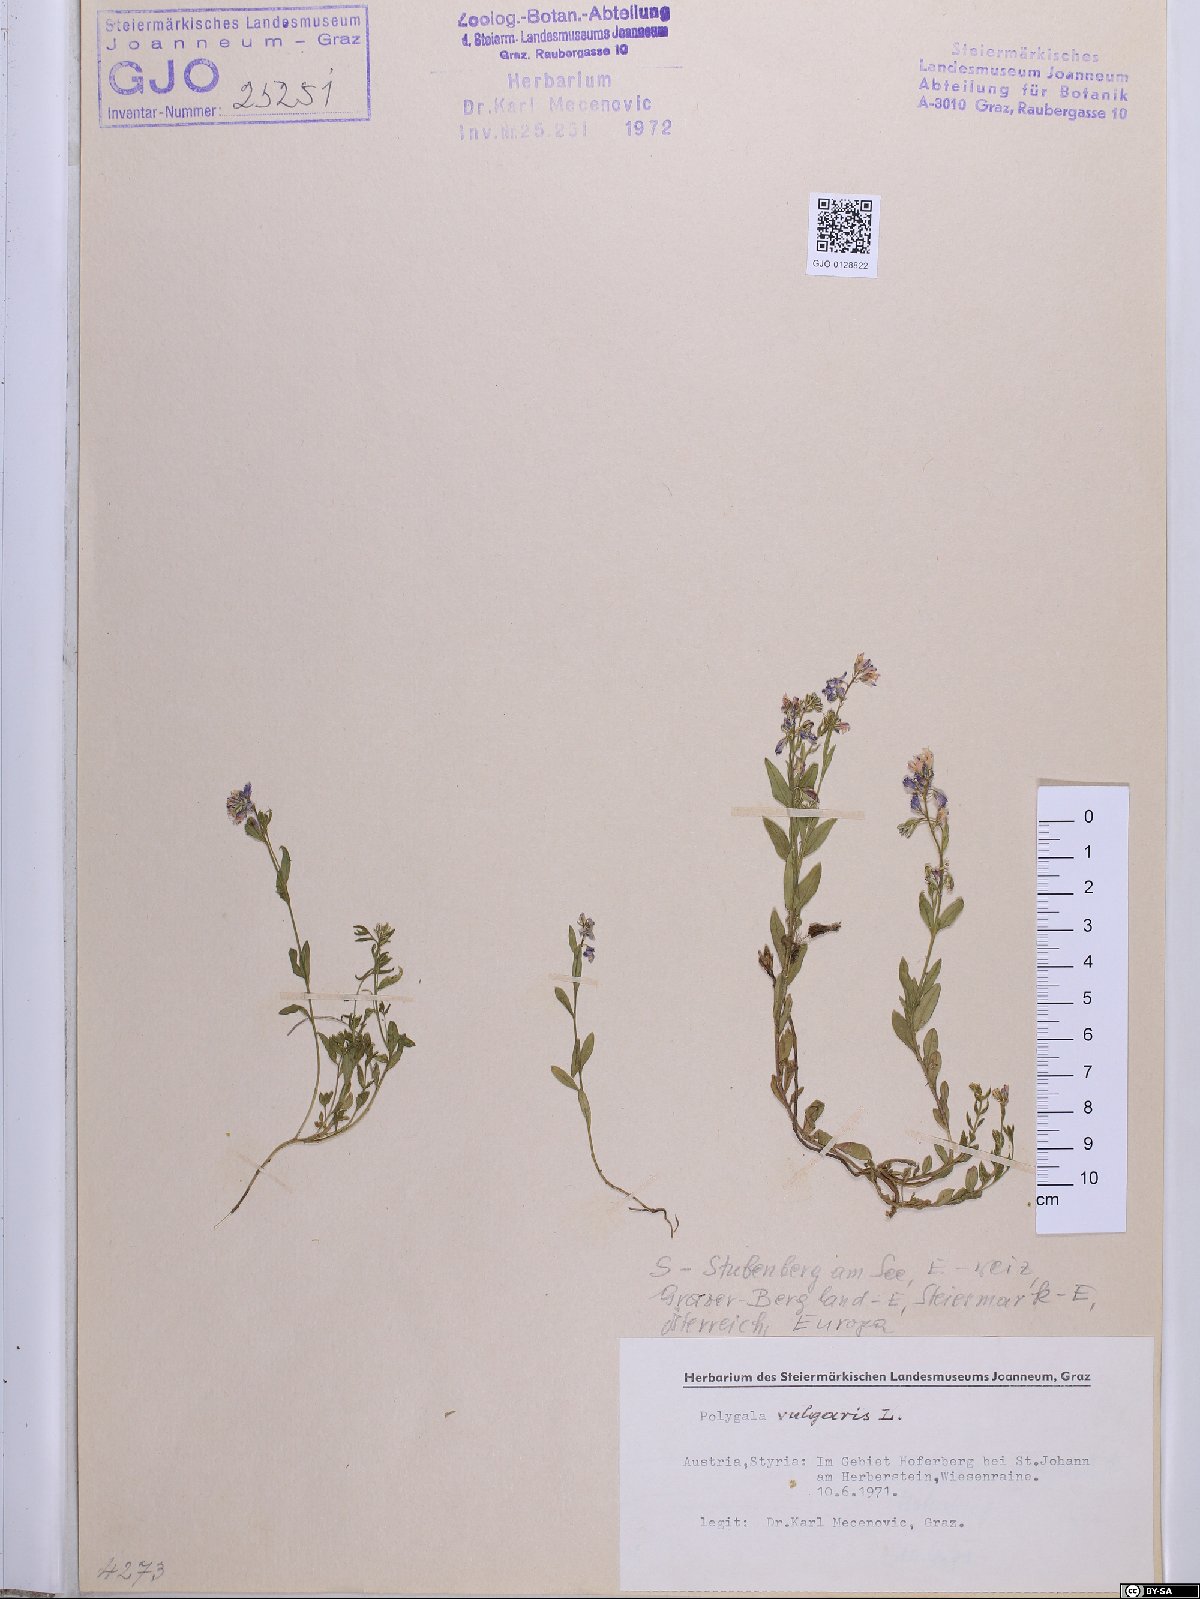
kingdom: Plantae
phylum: Tracheophyta
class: Magnoliopsida
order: Fabales
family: Polygalaceae
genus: Polygala
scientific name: Polygala vulgaris
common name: Common milkwort
